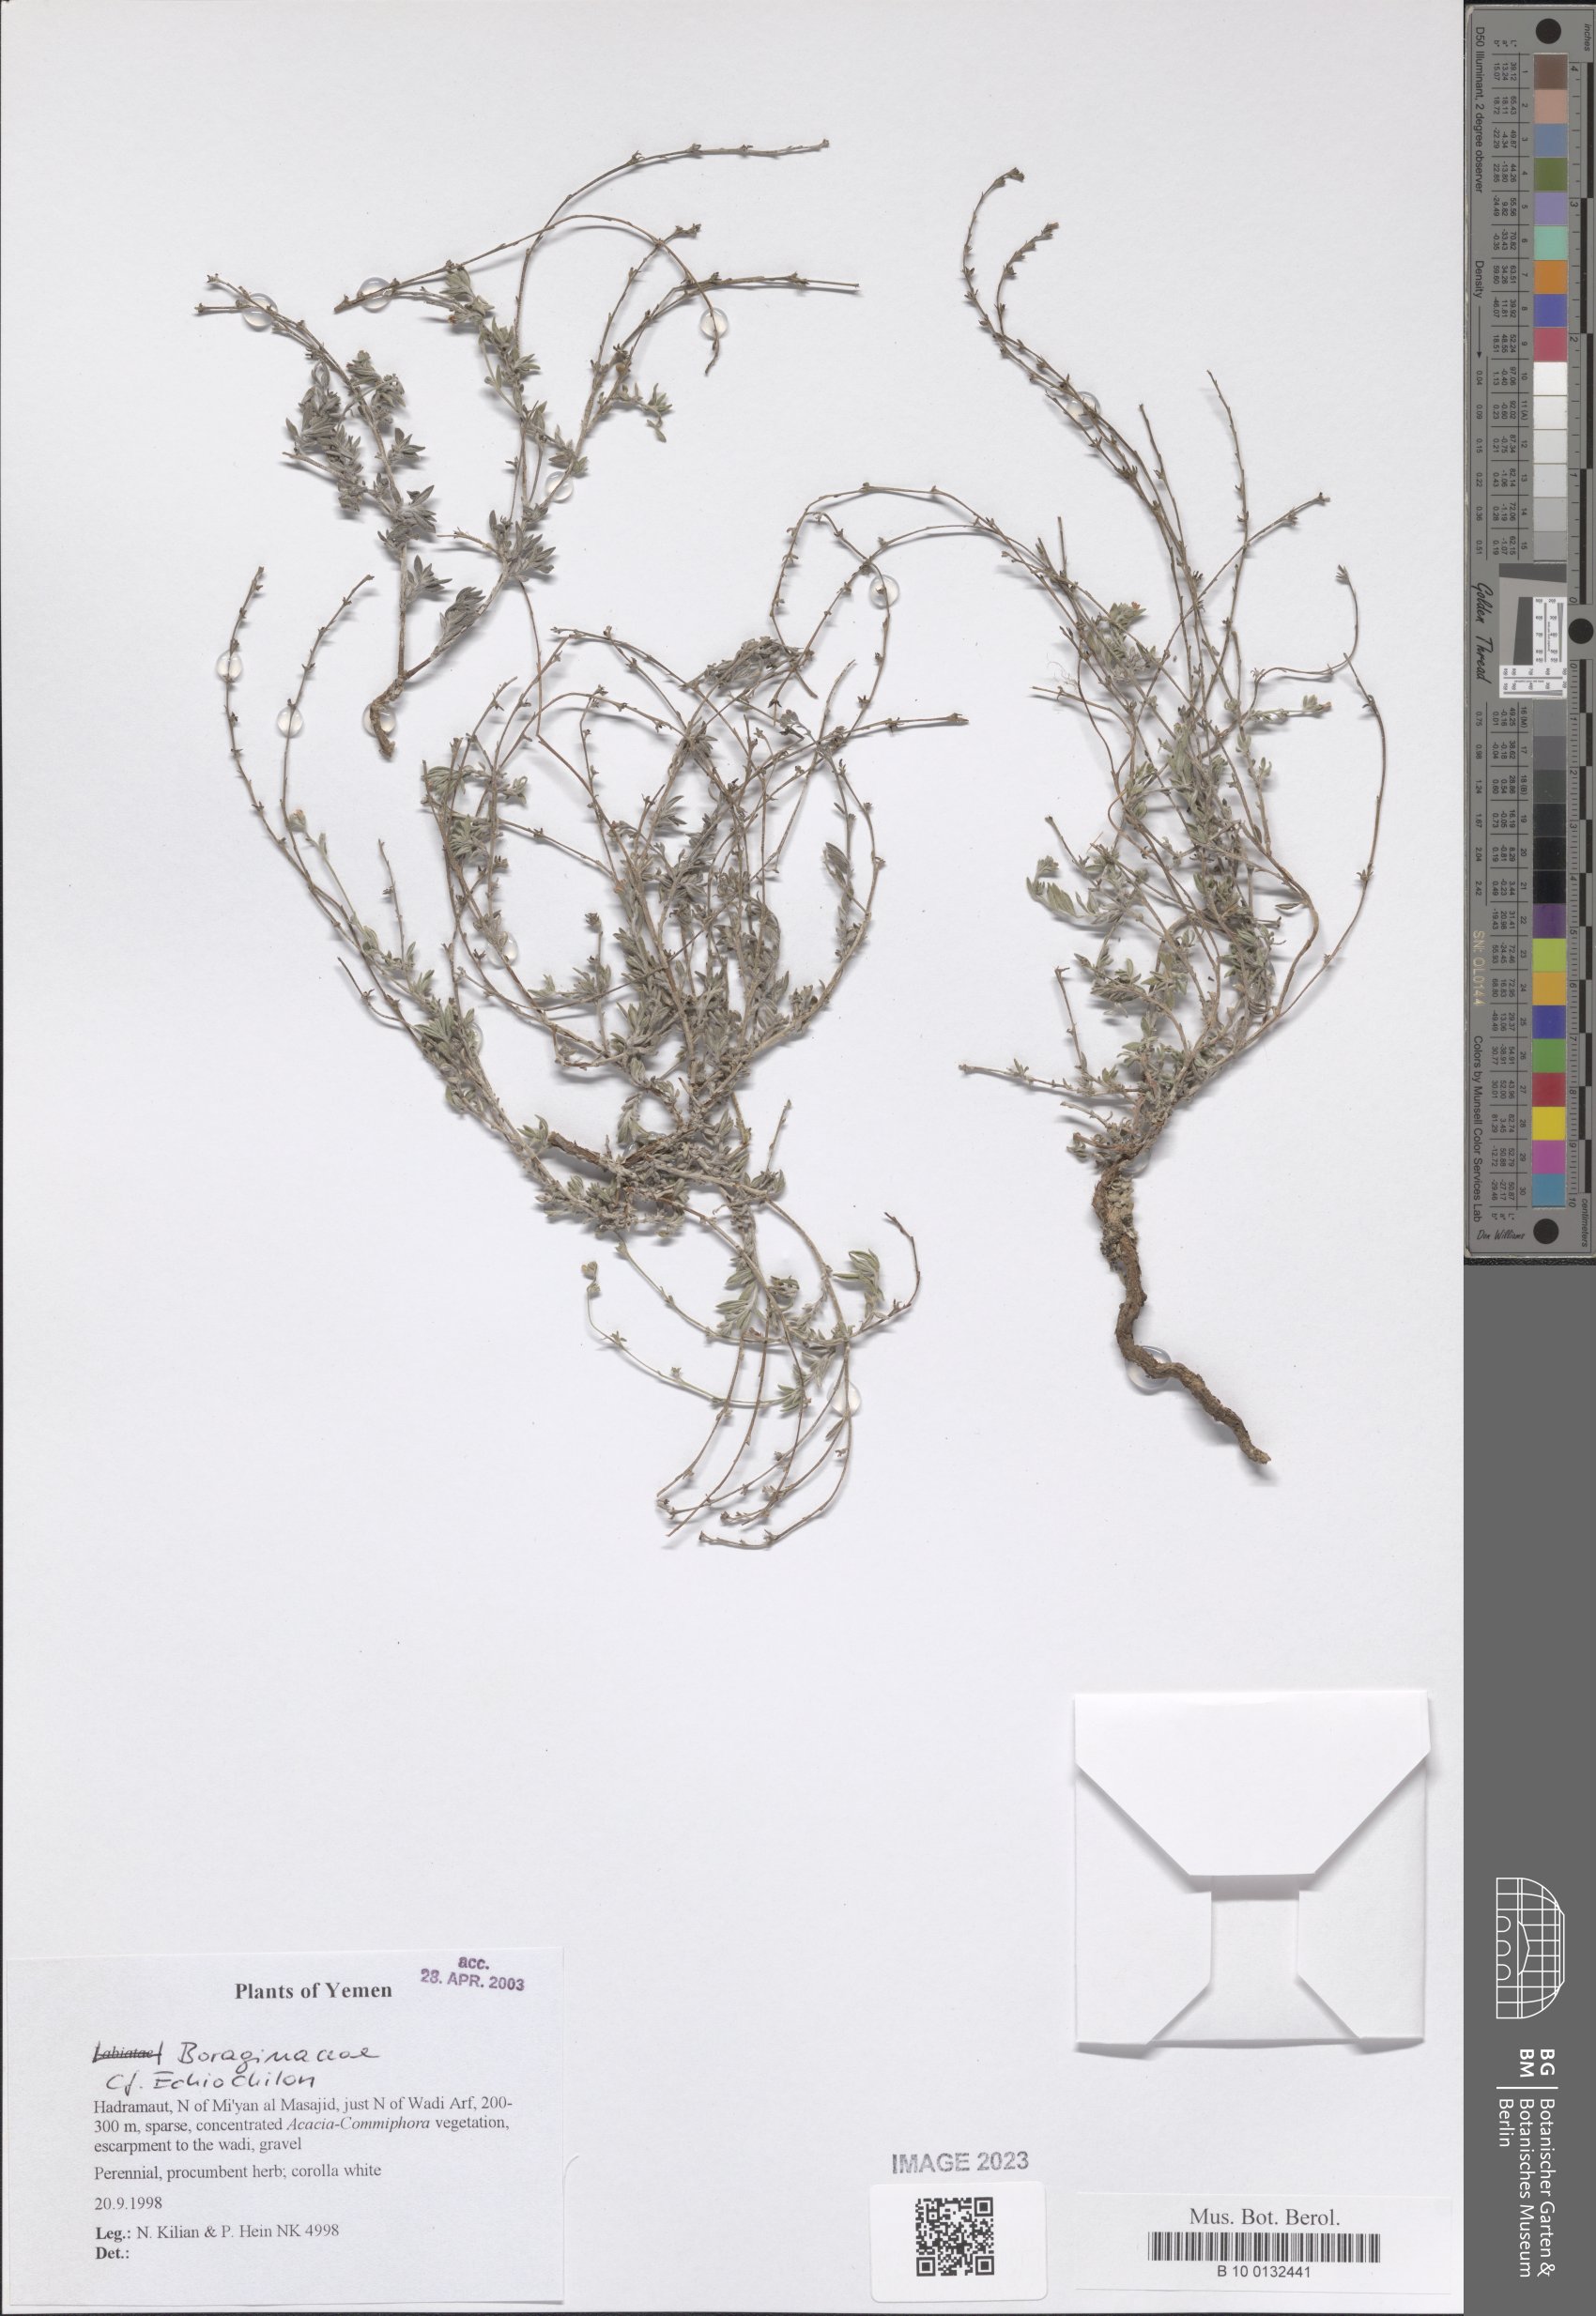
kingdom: Plantae
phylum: Tracheophyta
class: Magnoliopsida
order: Boraginales
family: Boraginaceae
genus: Echiochilon
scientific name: Echiochilon
